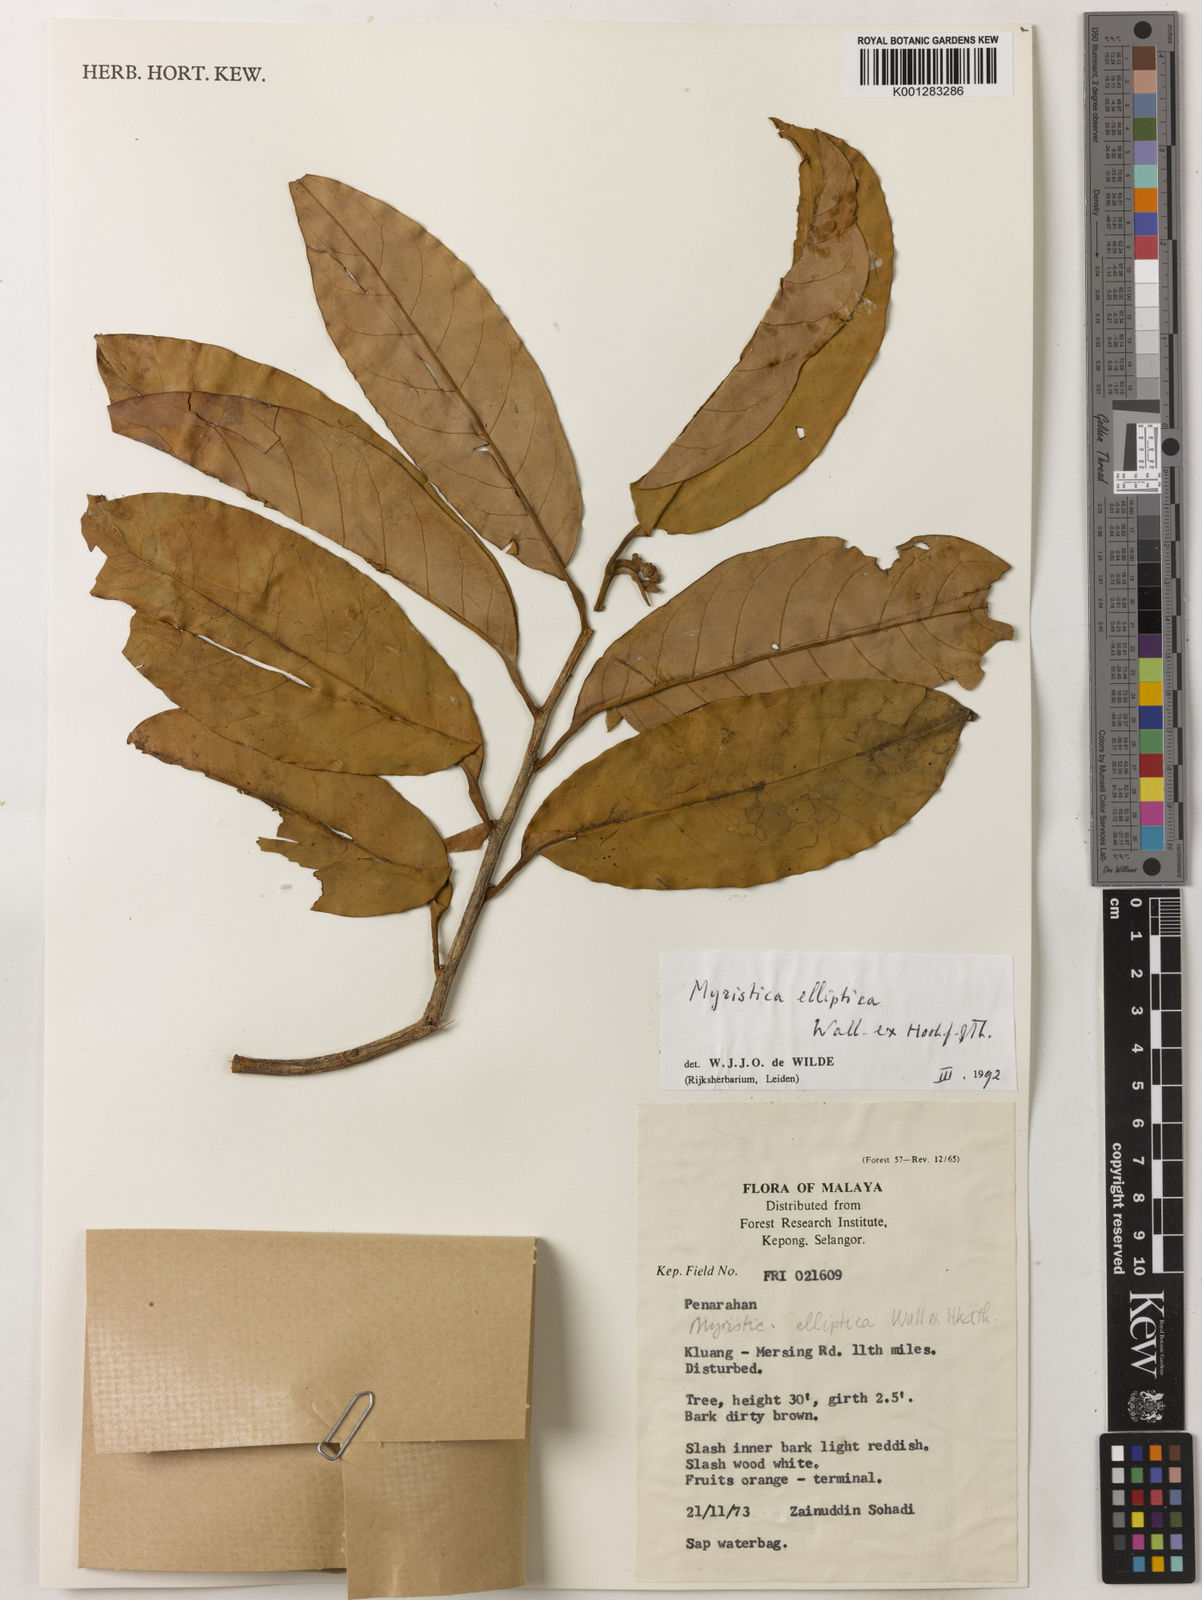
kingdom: Plantae
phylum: Tracheophyta
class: Magnoliopsida
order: Magnoliales
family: Myristicaceae
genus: Myristica
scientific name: Myristica elliptica
